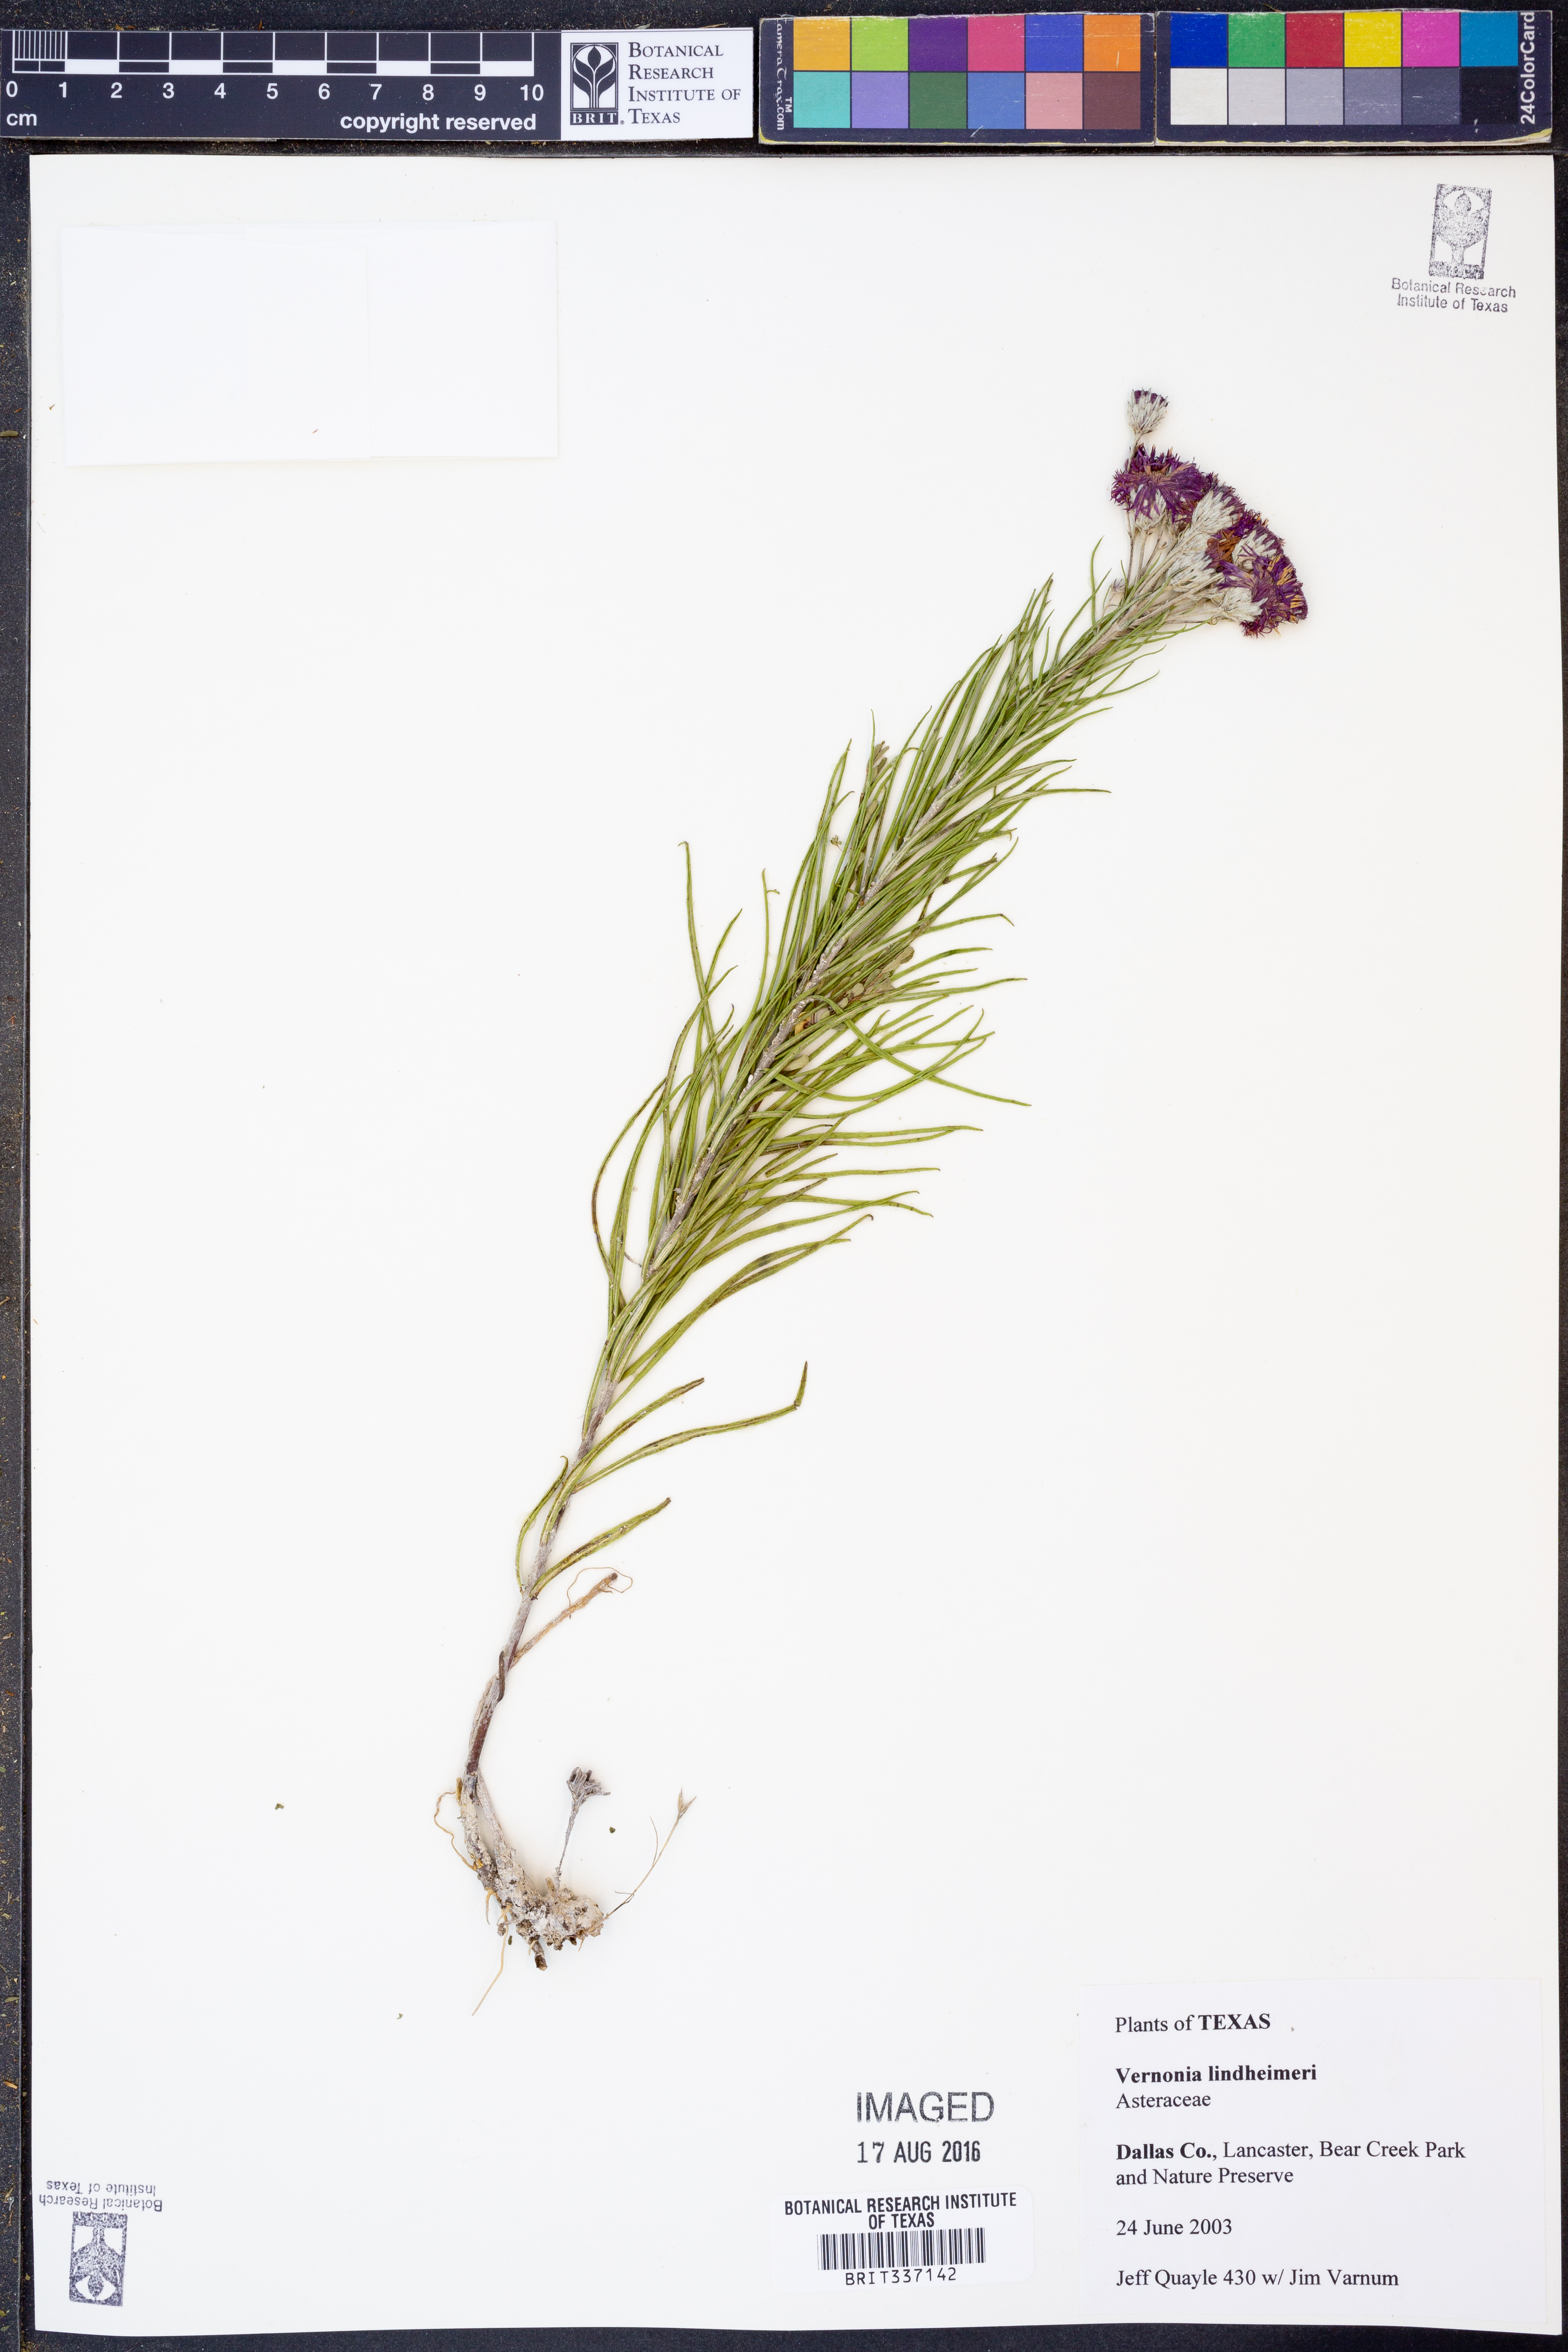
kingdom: Plantae
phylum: Tracheophyta
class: Magnoliopsida
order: Asterales
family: Asteraceae
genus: Vernonia
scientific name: Vernonia lindheimeri
